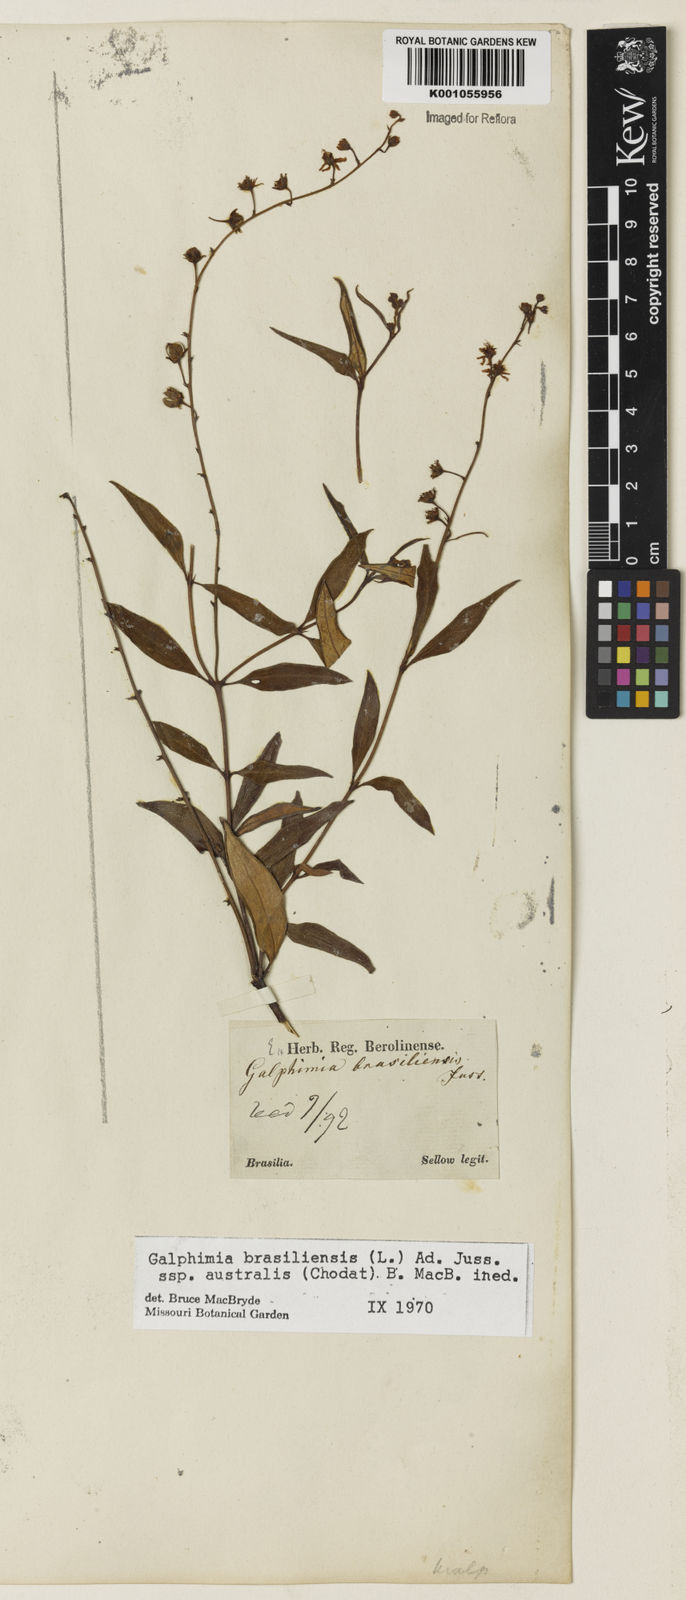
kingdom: Plantae
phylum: Tracheophyta
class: Magnoliopsida
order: Malpighiales
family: Malpighiaceae
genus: Galphimia
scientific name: Galphimia brasiliensis
